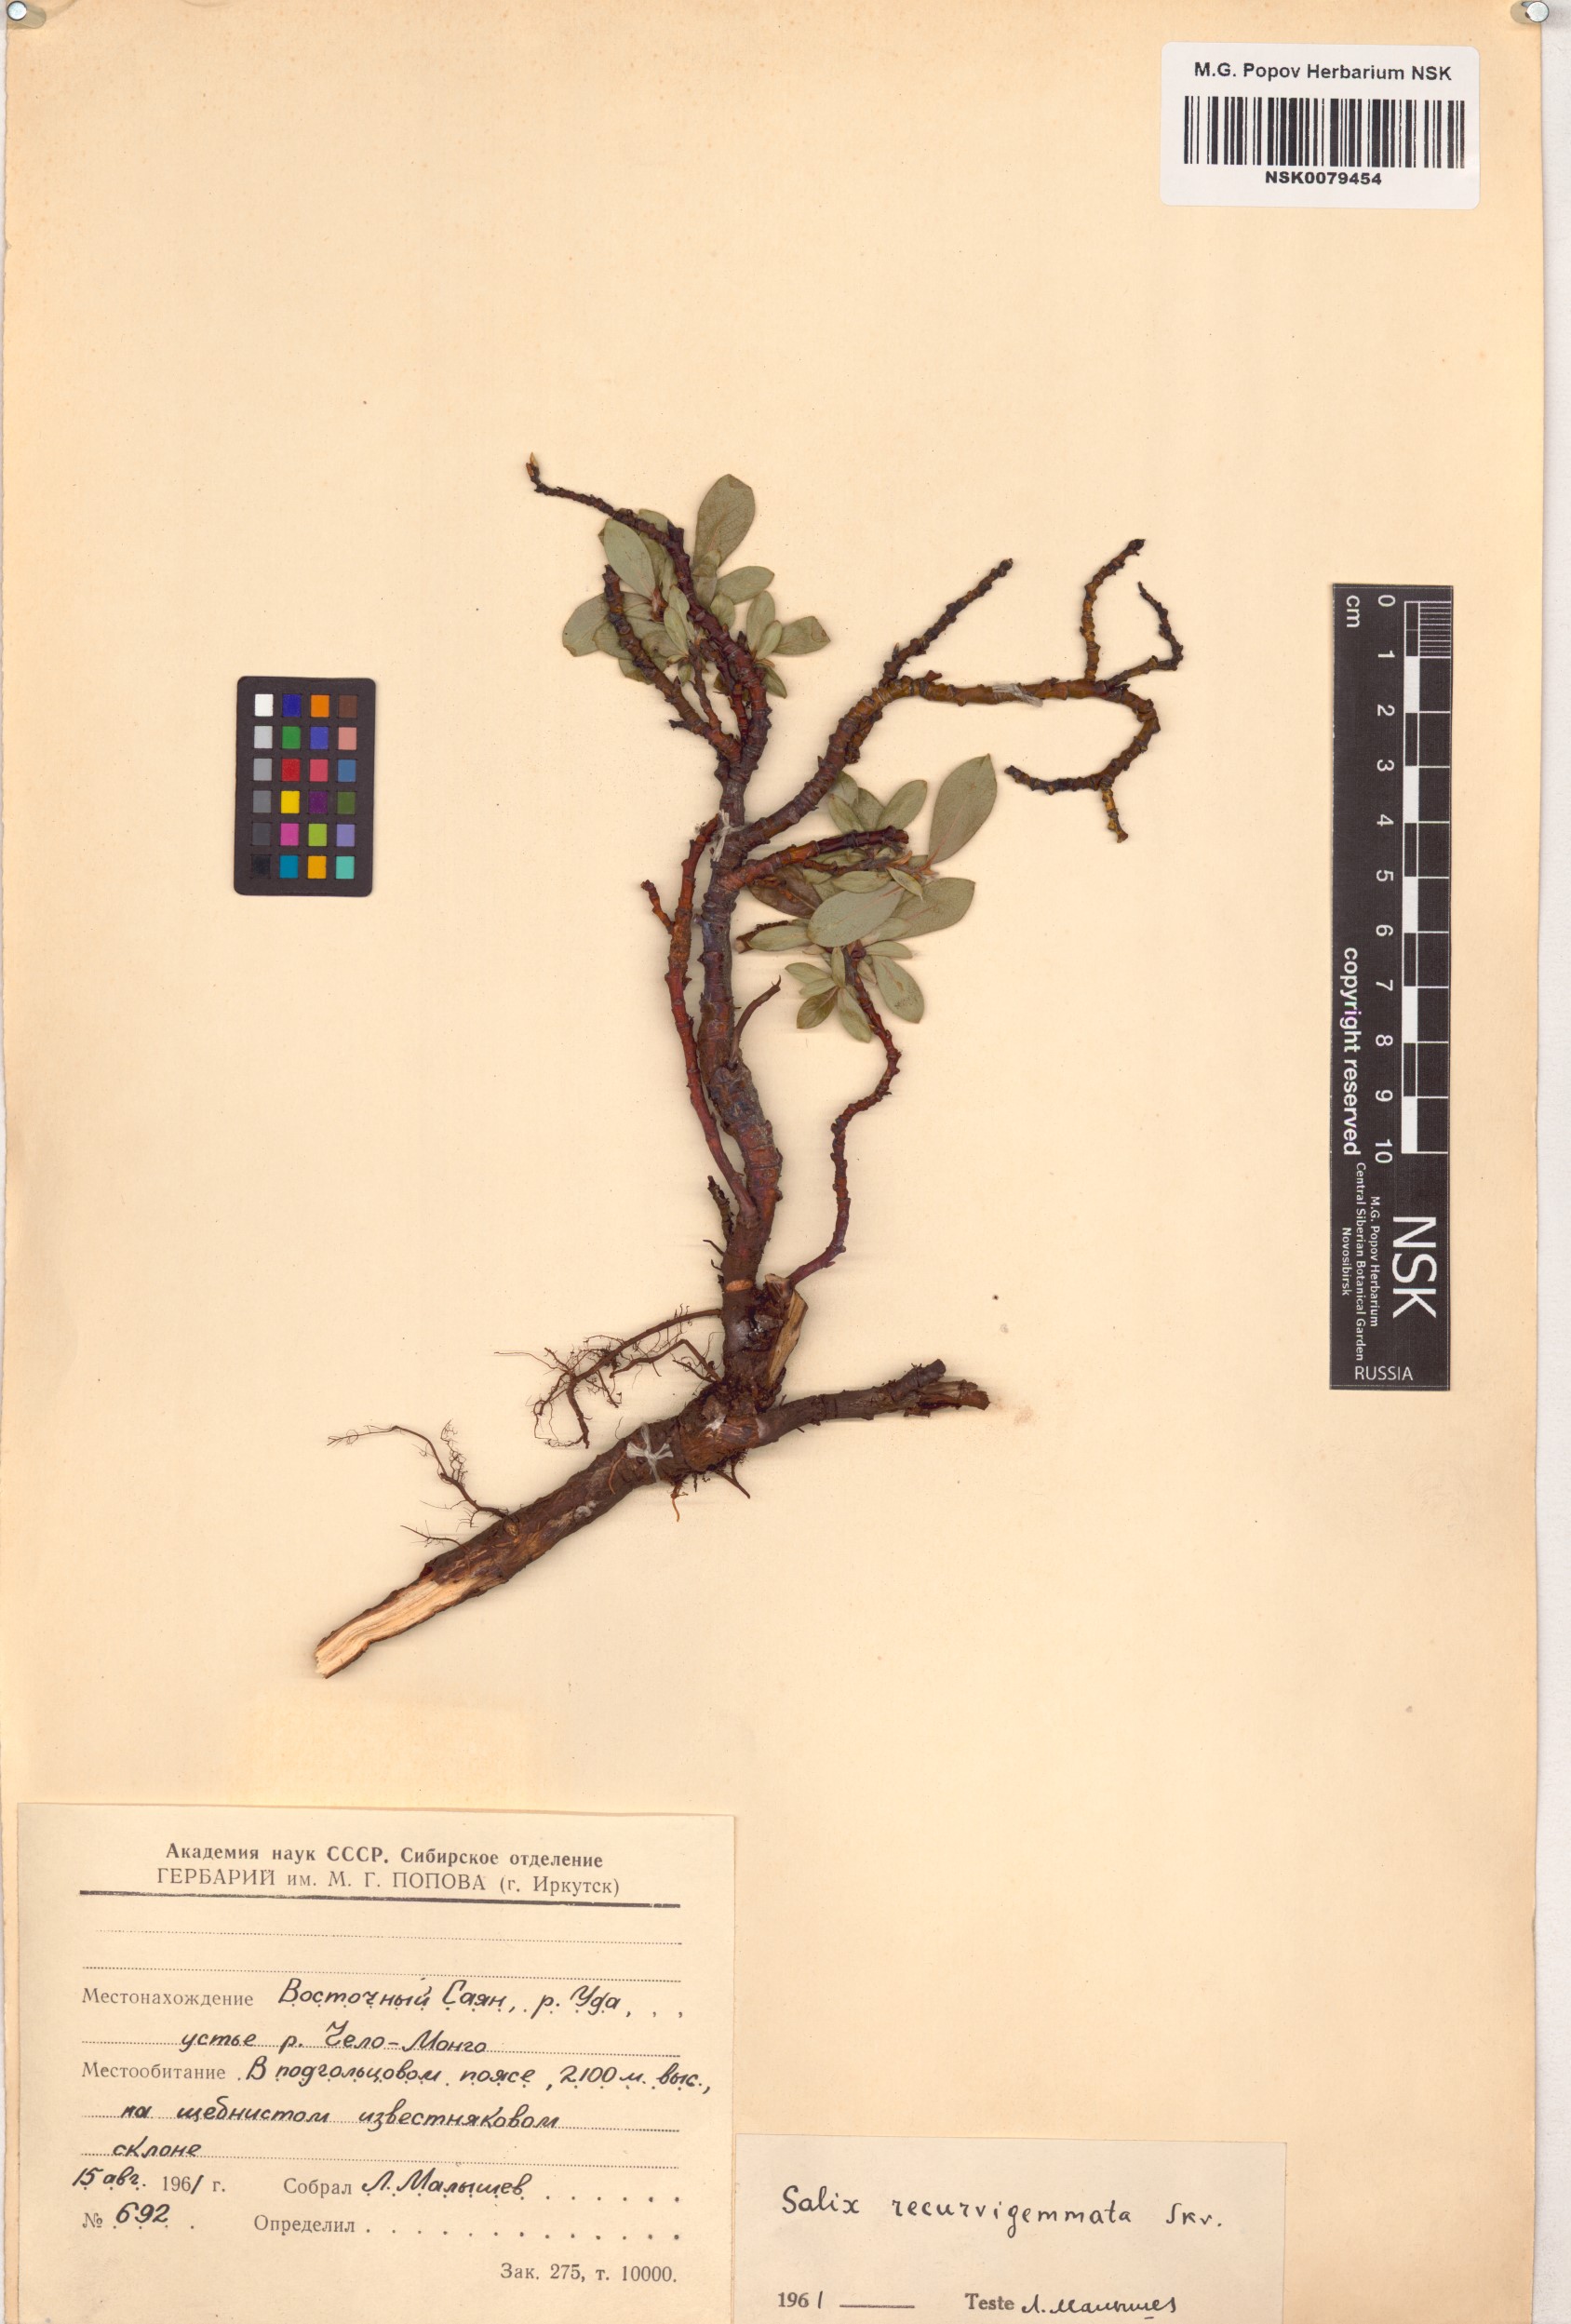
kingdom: Plantae
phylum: Tracheophyta
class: Magnoliopsida
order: Malpighiales
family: Salicaceae
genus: Salix
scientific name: Salix recurvigemmata
